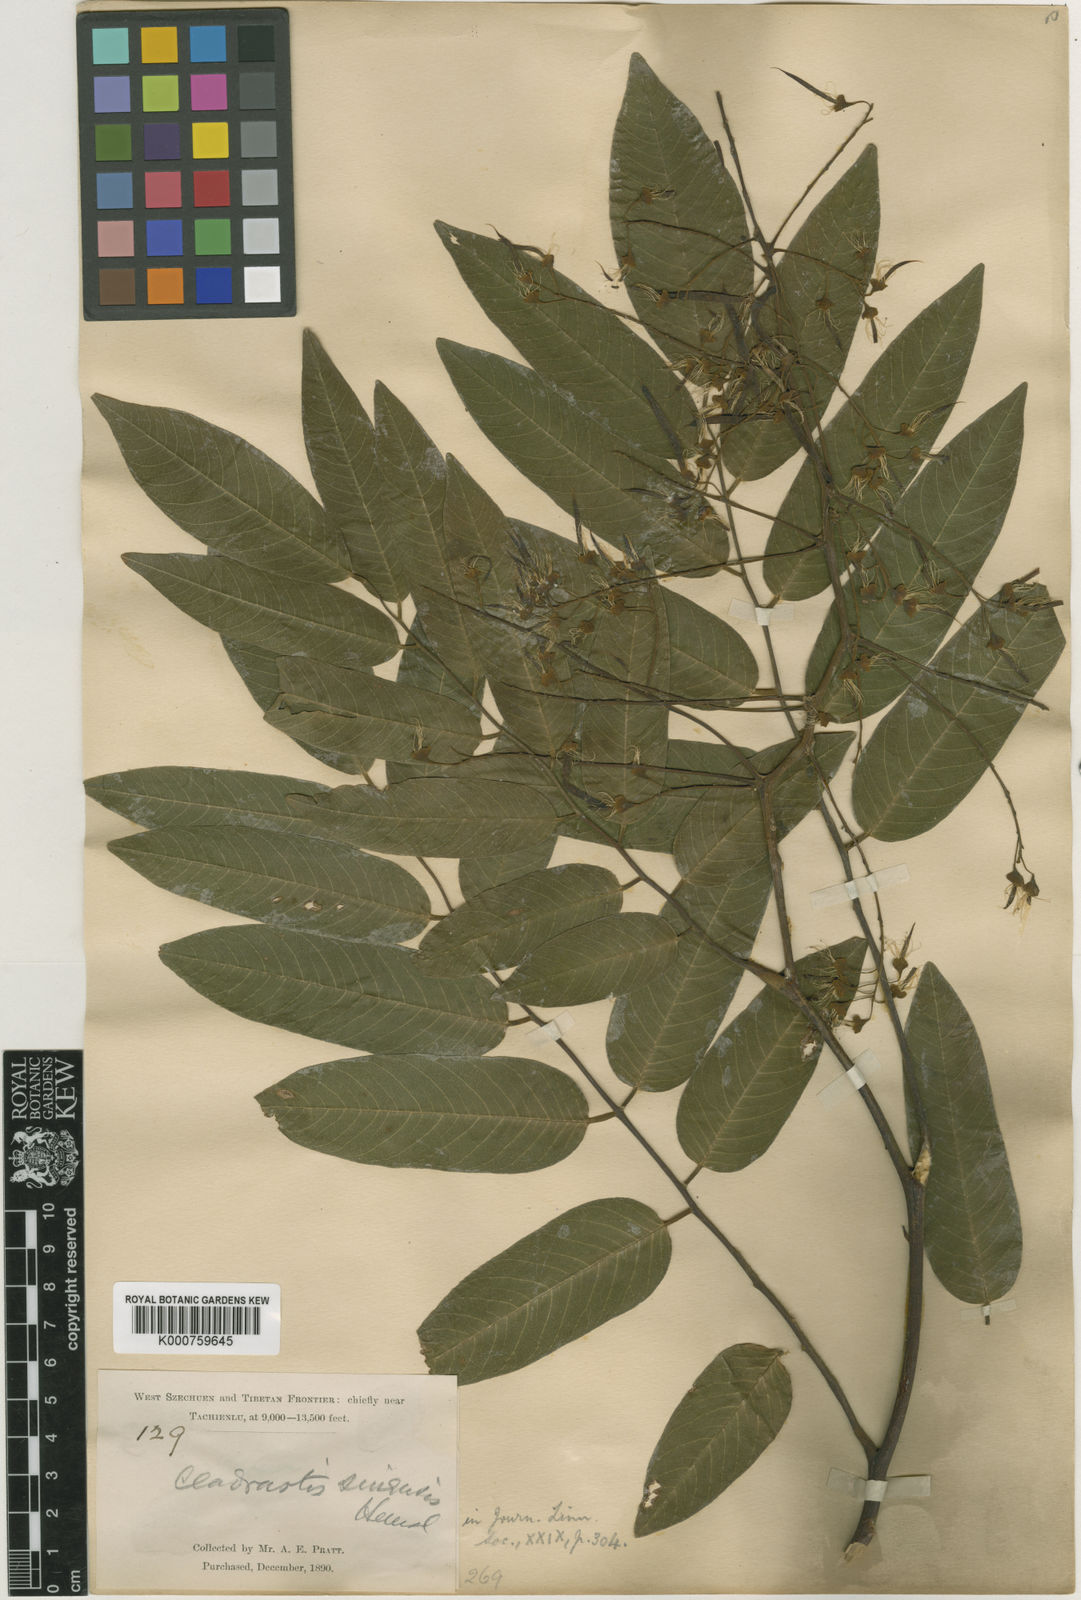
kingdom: Plantae
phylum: Tracheophyta
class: Magnoliopsida
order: Fabales
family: Fabaceae
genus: Cladrastis
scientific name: Cladrastis delavayi
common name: Chinese yellowwood
